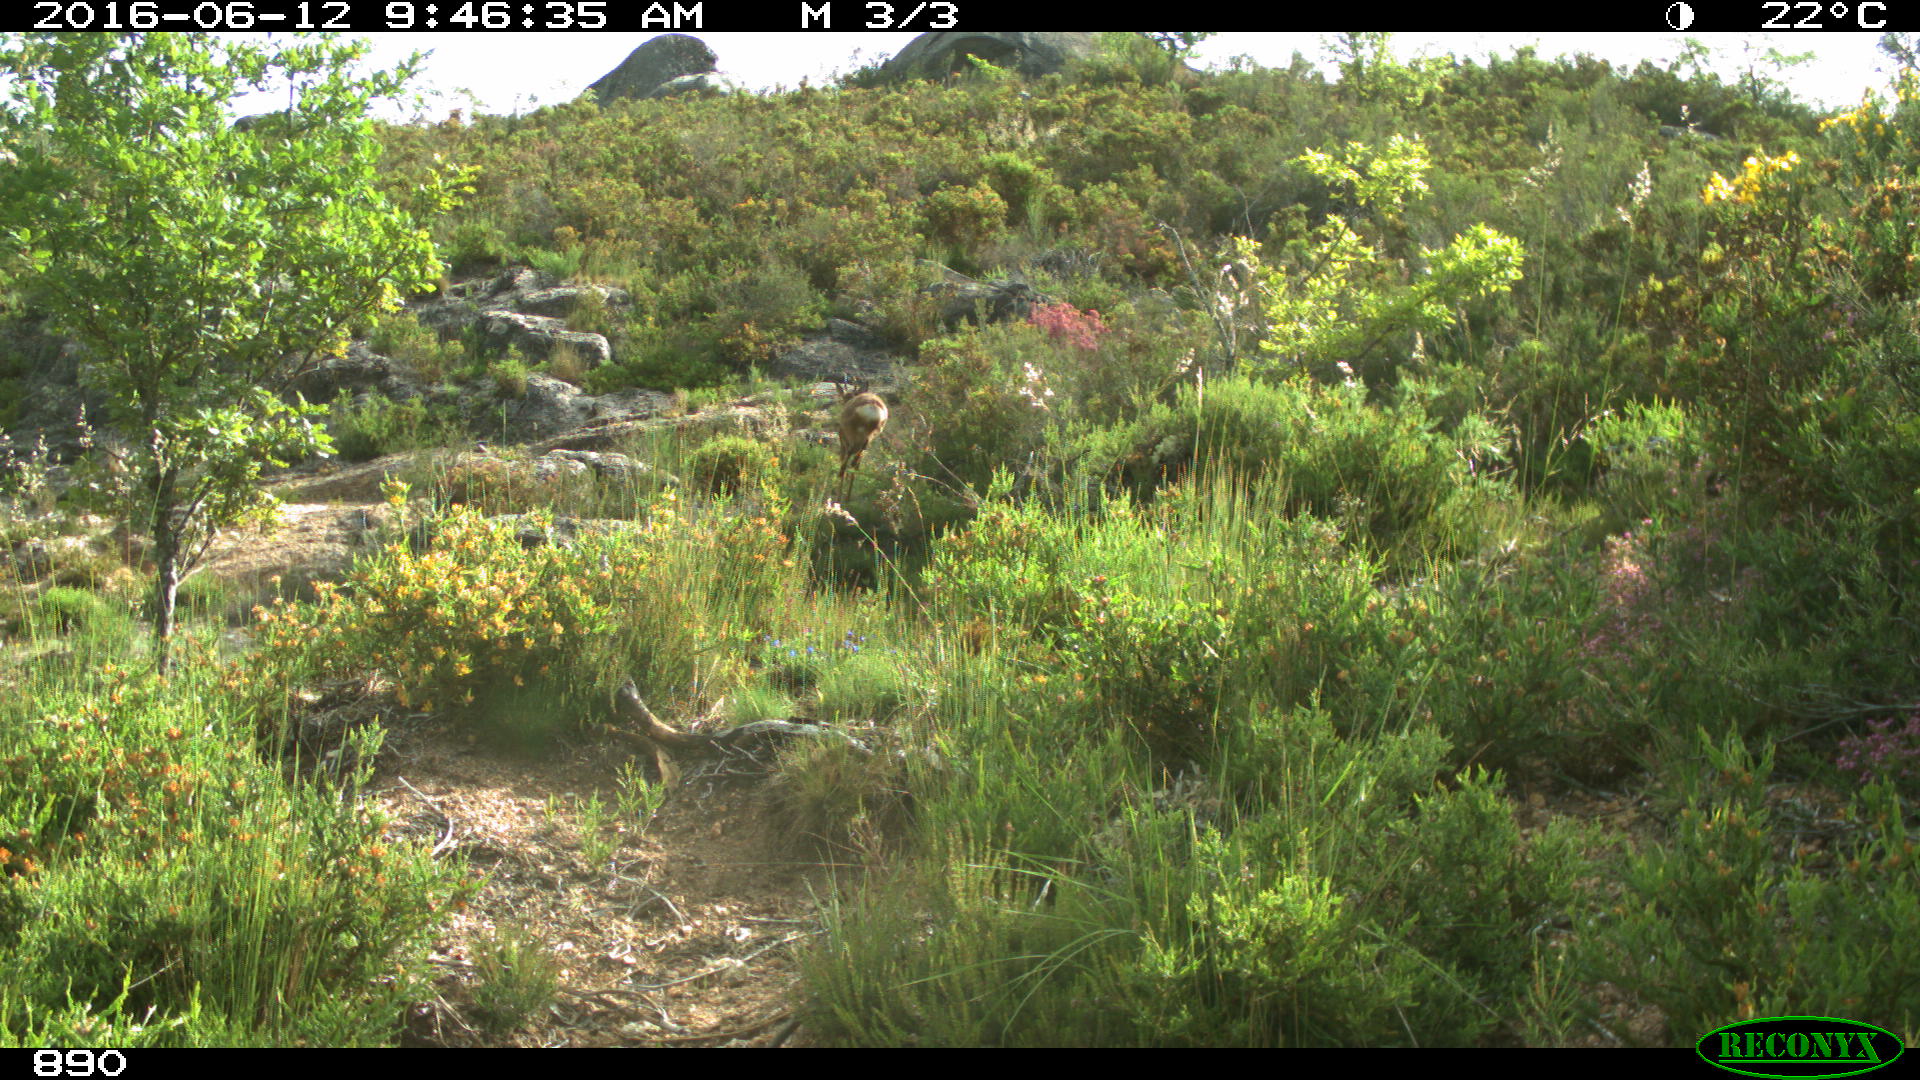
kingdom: Animalia
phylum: Chordata
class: Mammalia
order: Artiodactyla
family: Cervidae
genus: Capreolus
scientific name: Capreolus capreolus
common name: Western roe deer
